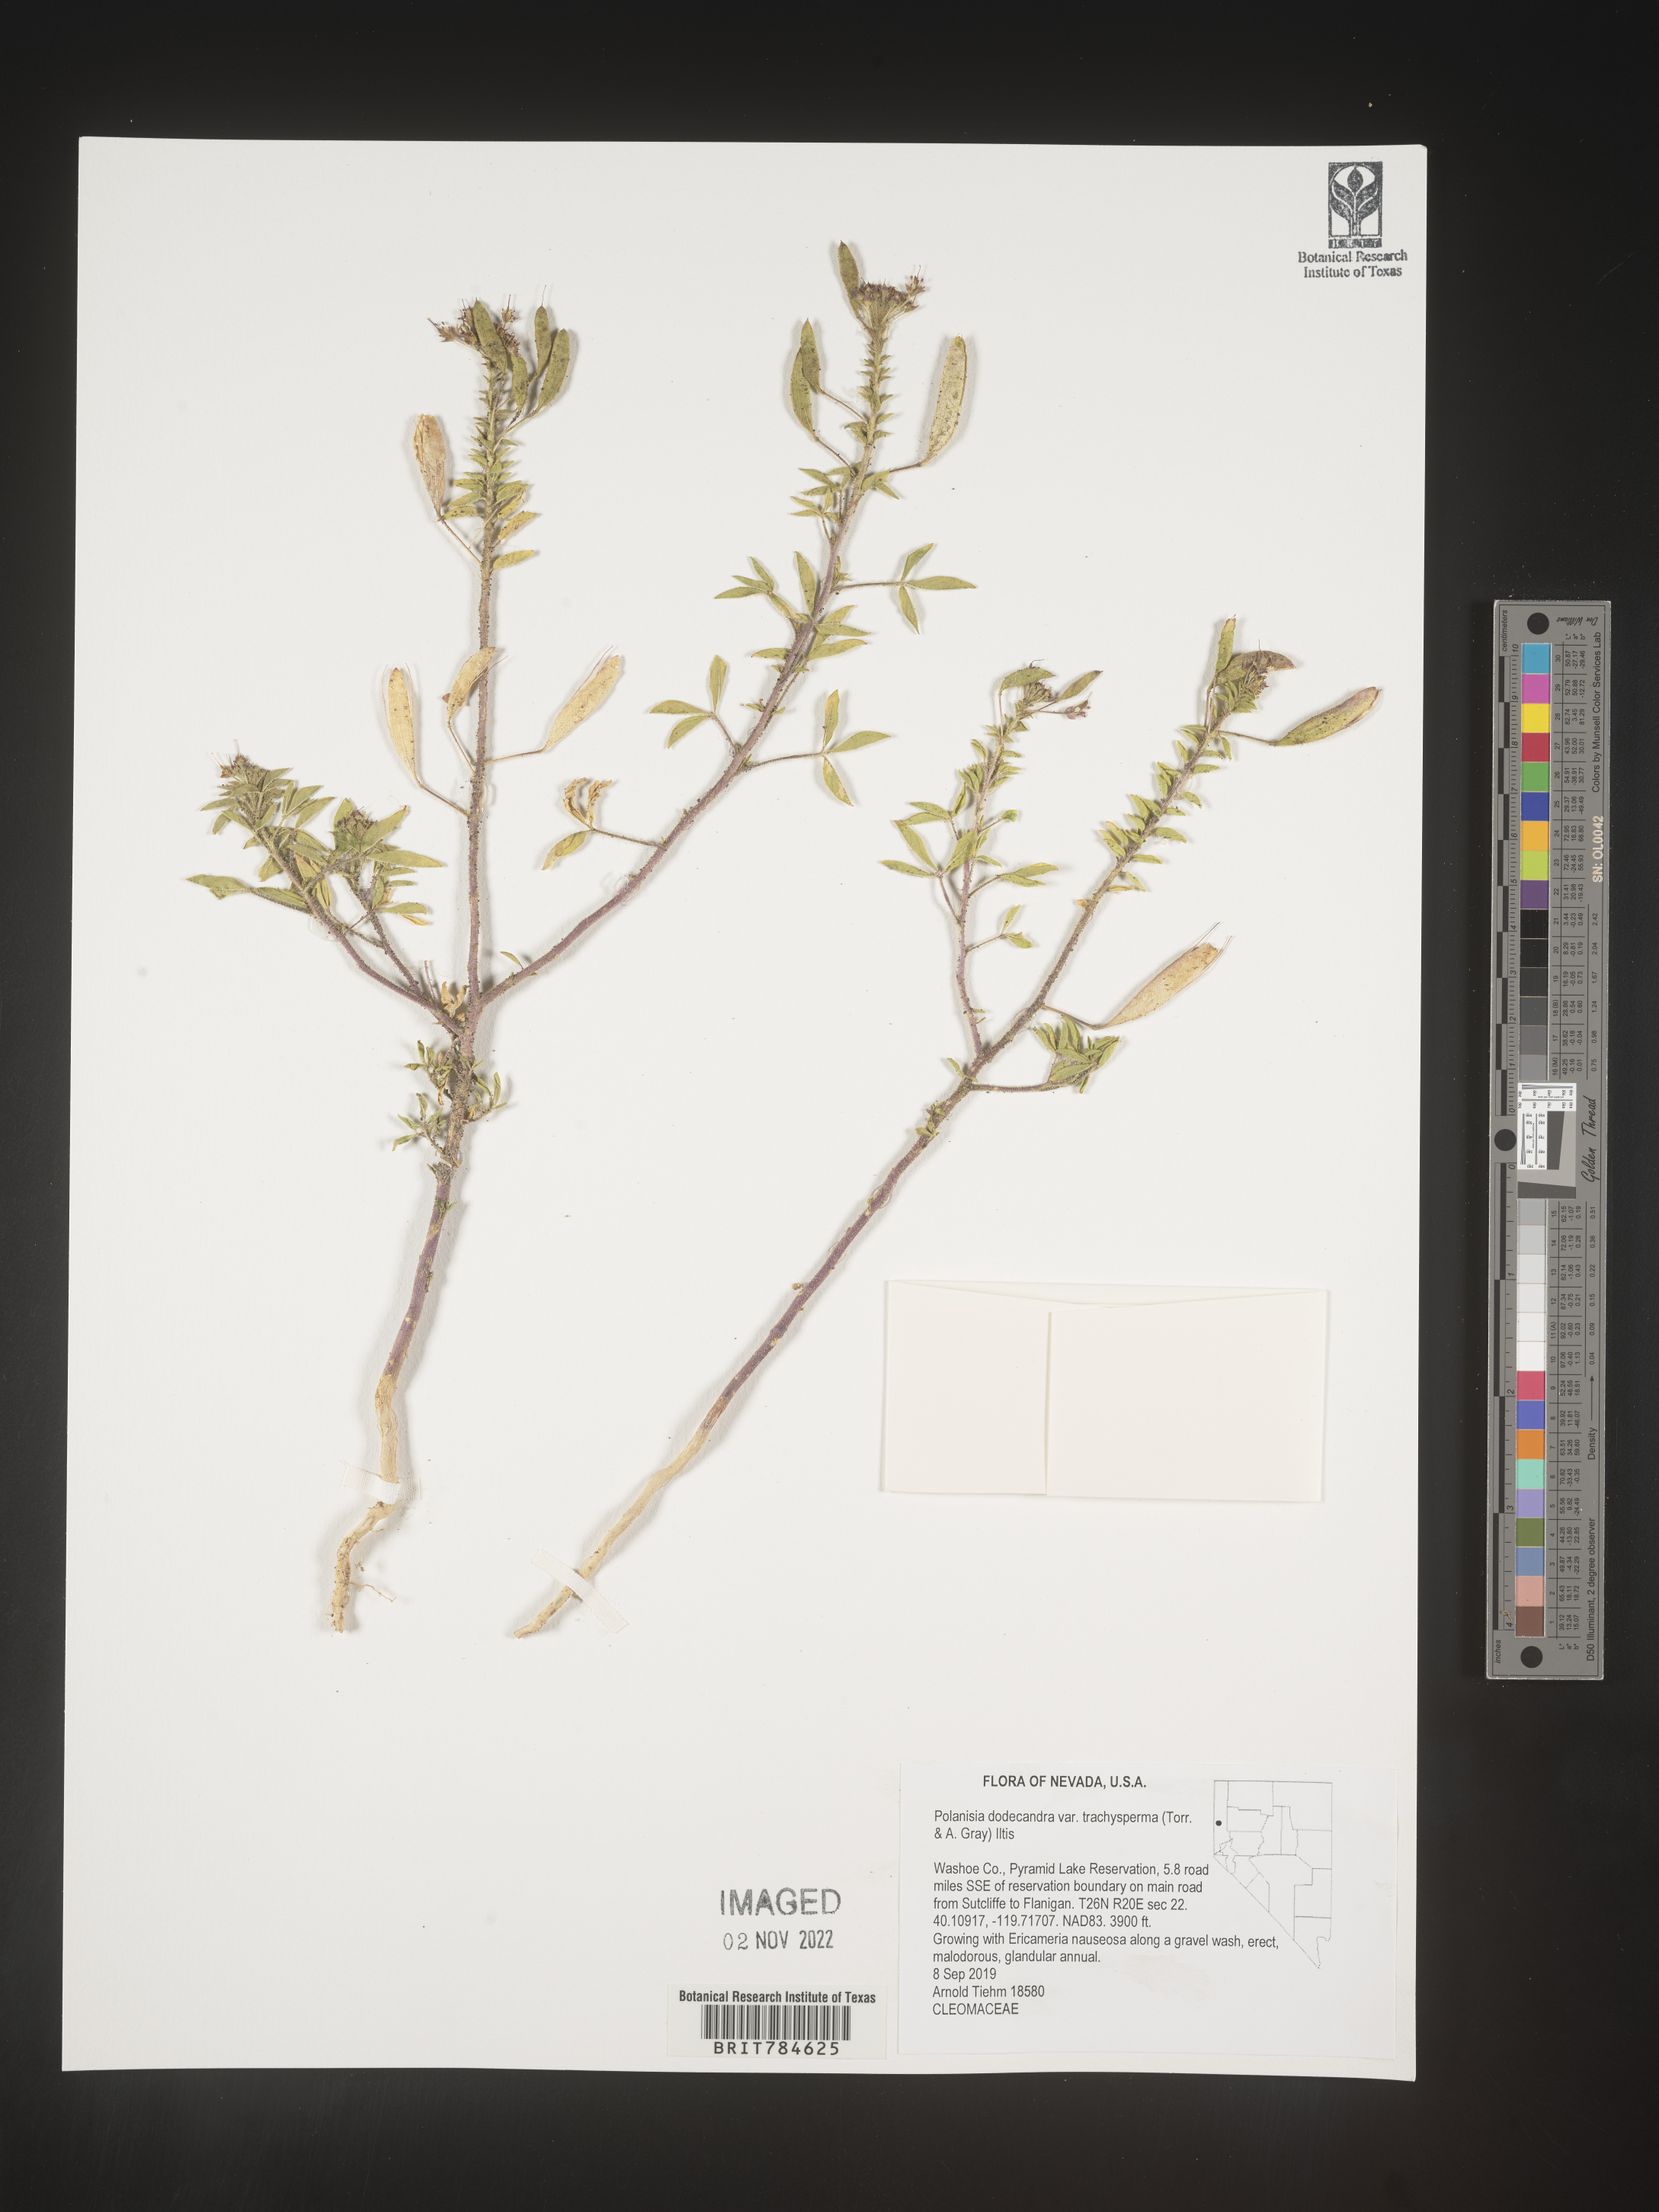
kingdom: Plantae
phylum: Tracheophyta
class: Magnoliopsida
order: Brassicales
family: Cleomaceae
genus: Polanisia
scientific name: Polanisia dodecandra
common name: Clammyweed
